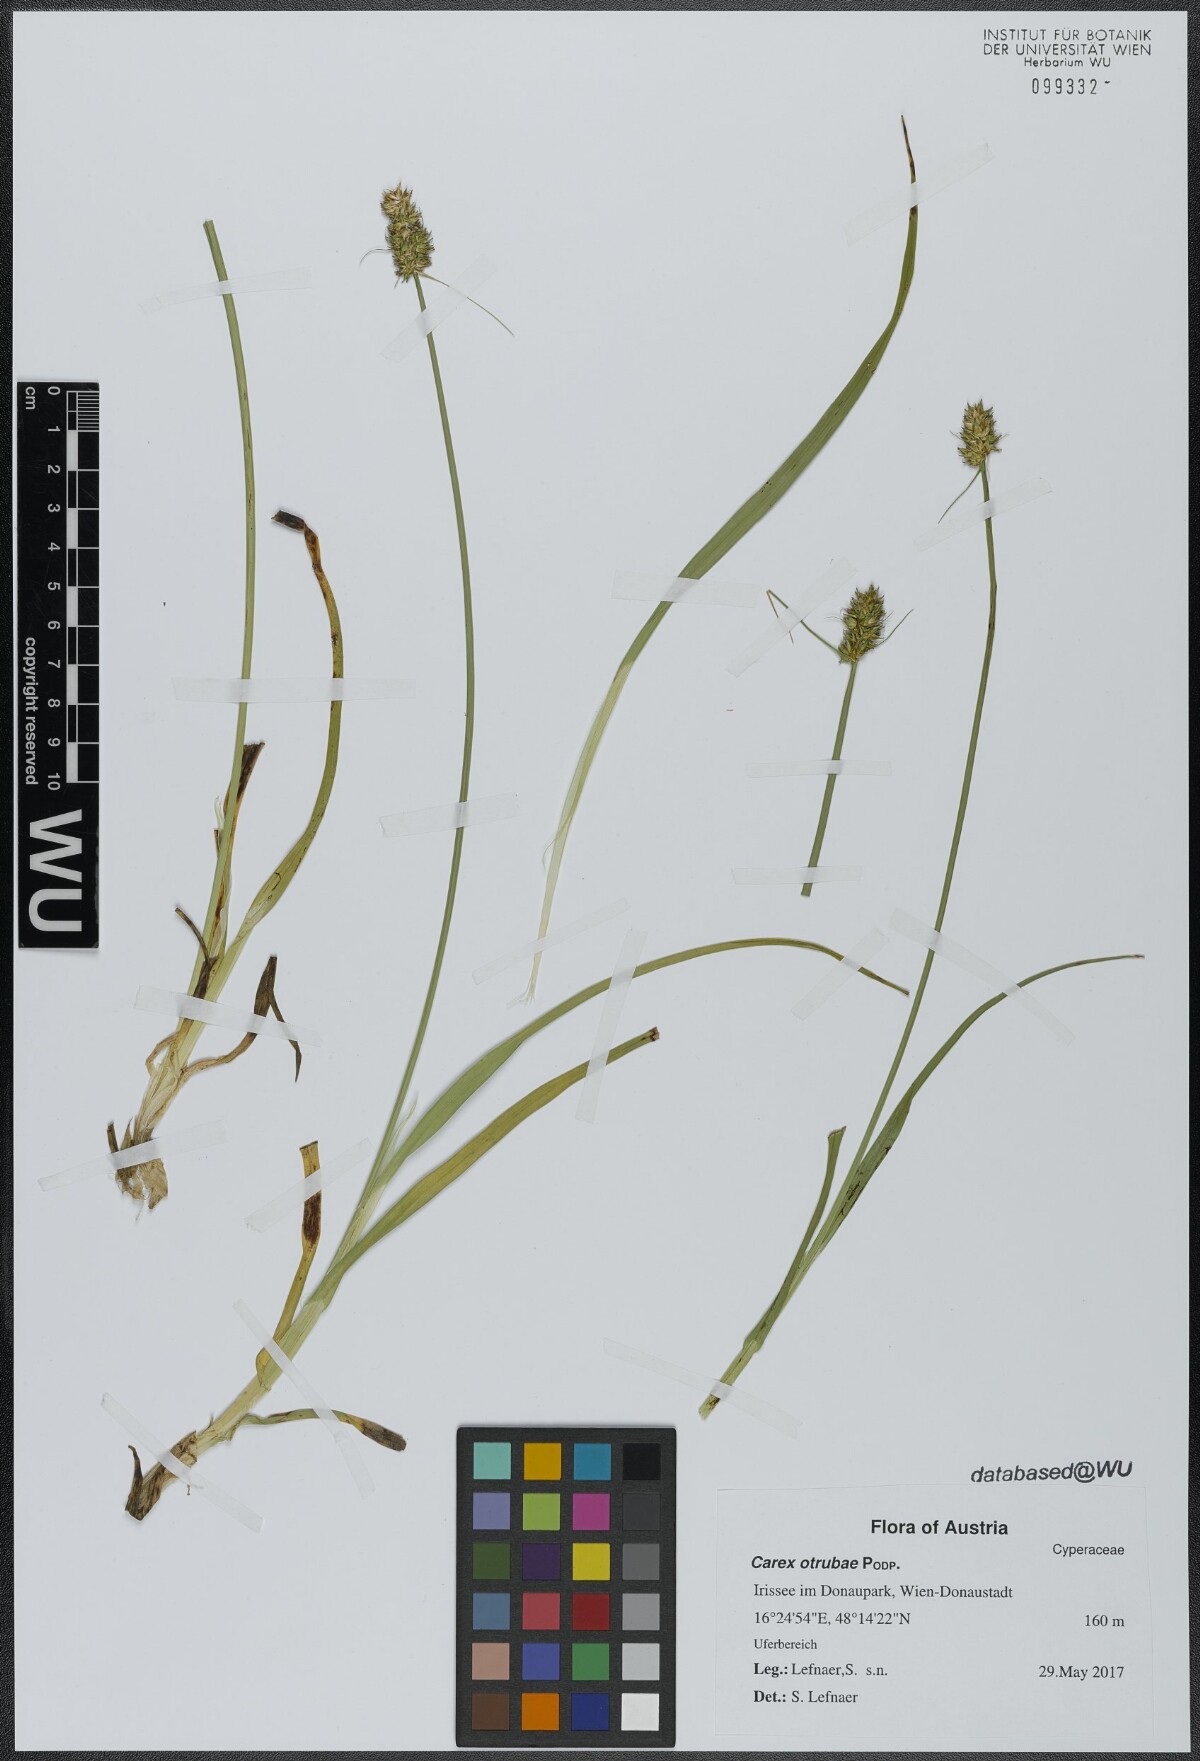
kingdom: Plantae
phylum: Tracheophyta
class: Liliopsida
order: Poales
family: Cyperaceae
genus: Carex
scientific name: Carex otrubae
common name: False fox-sedge
